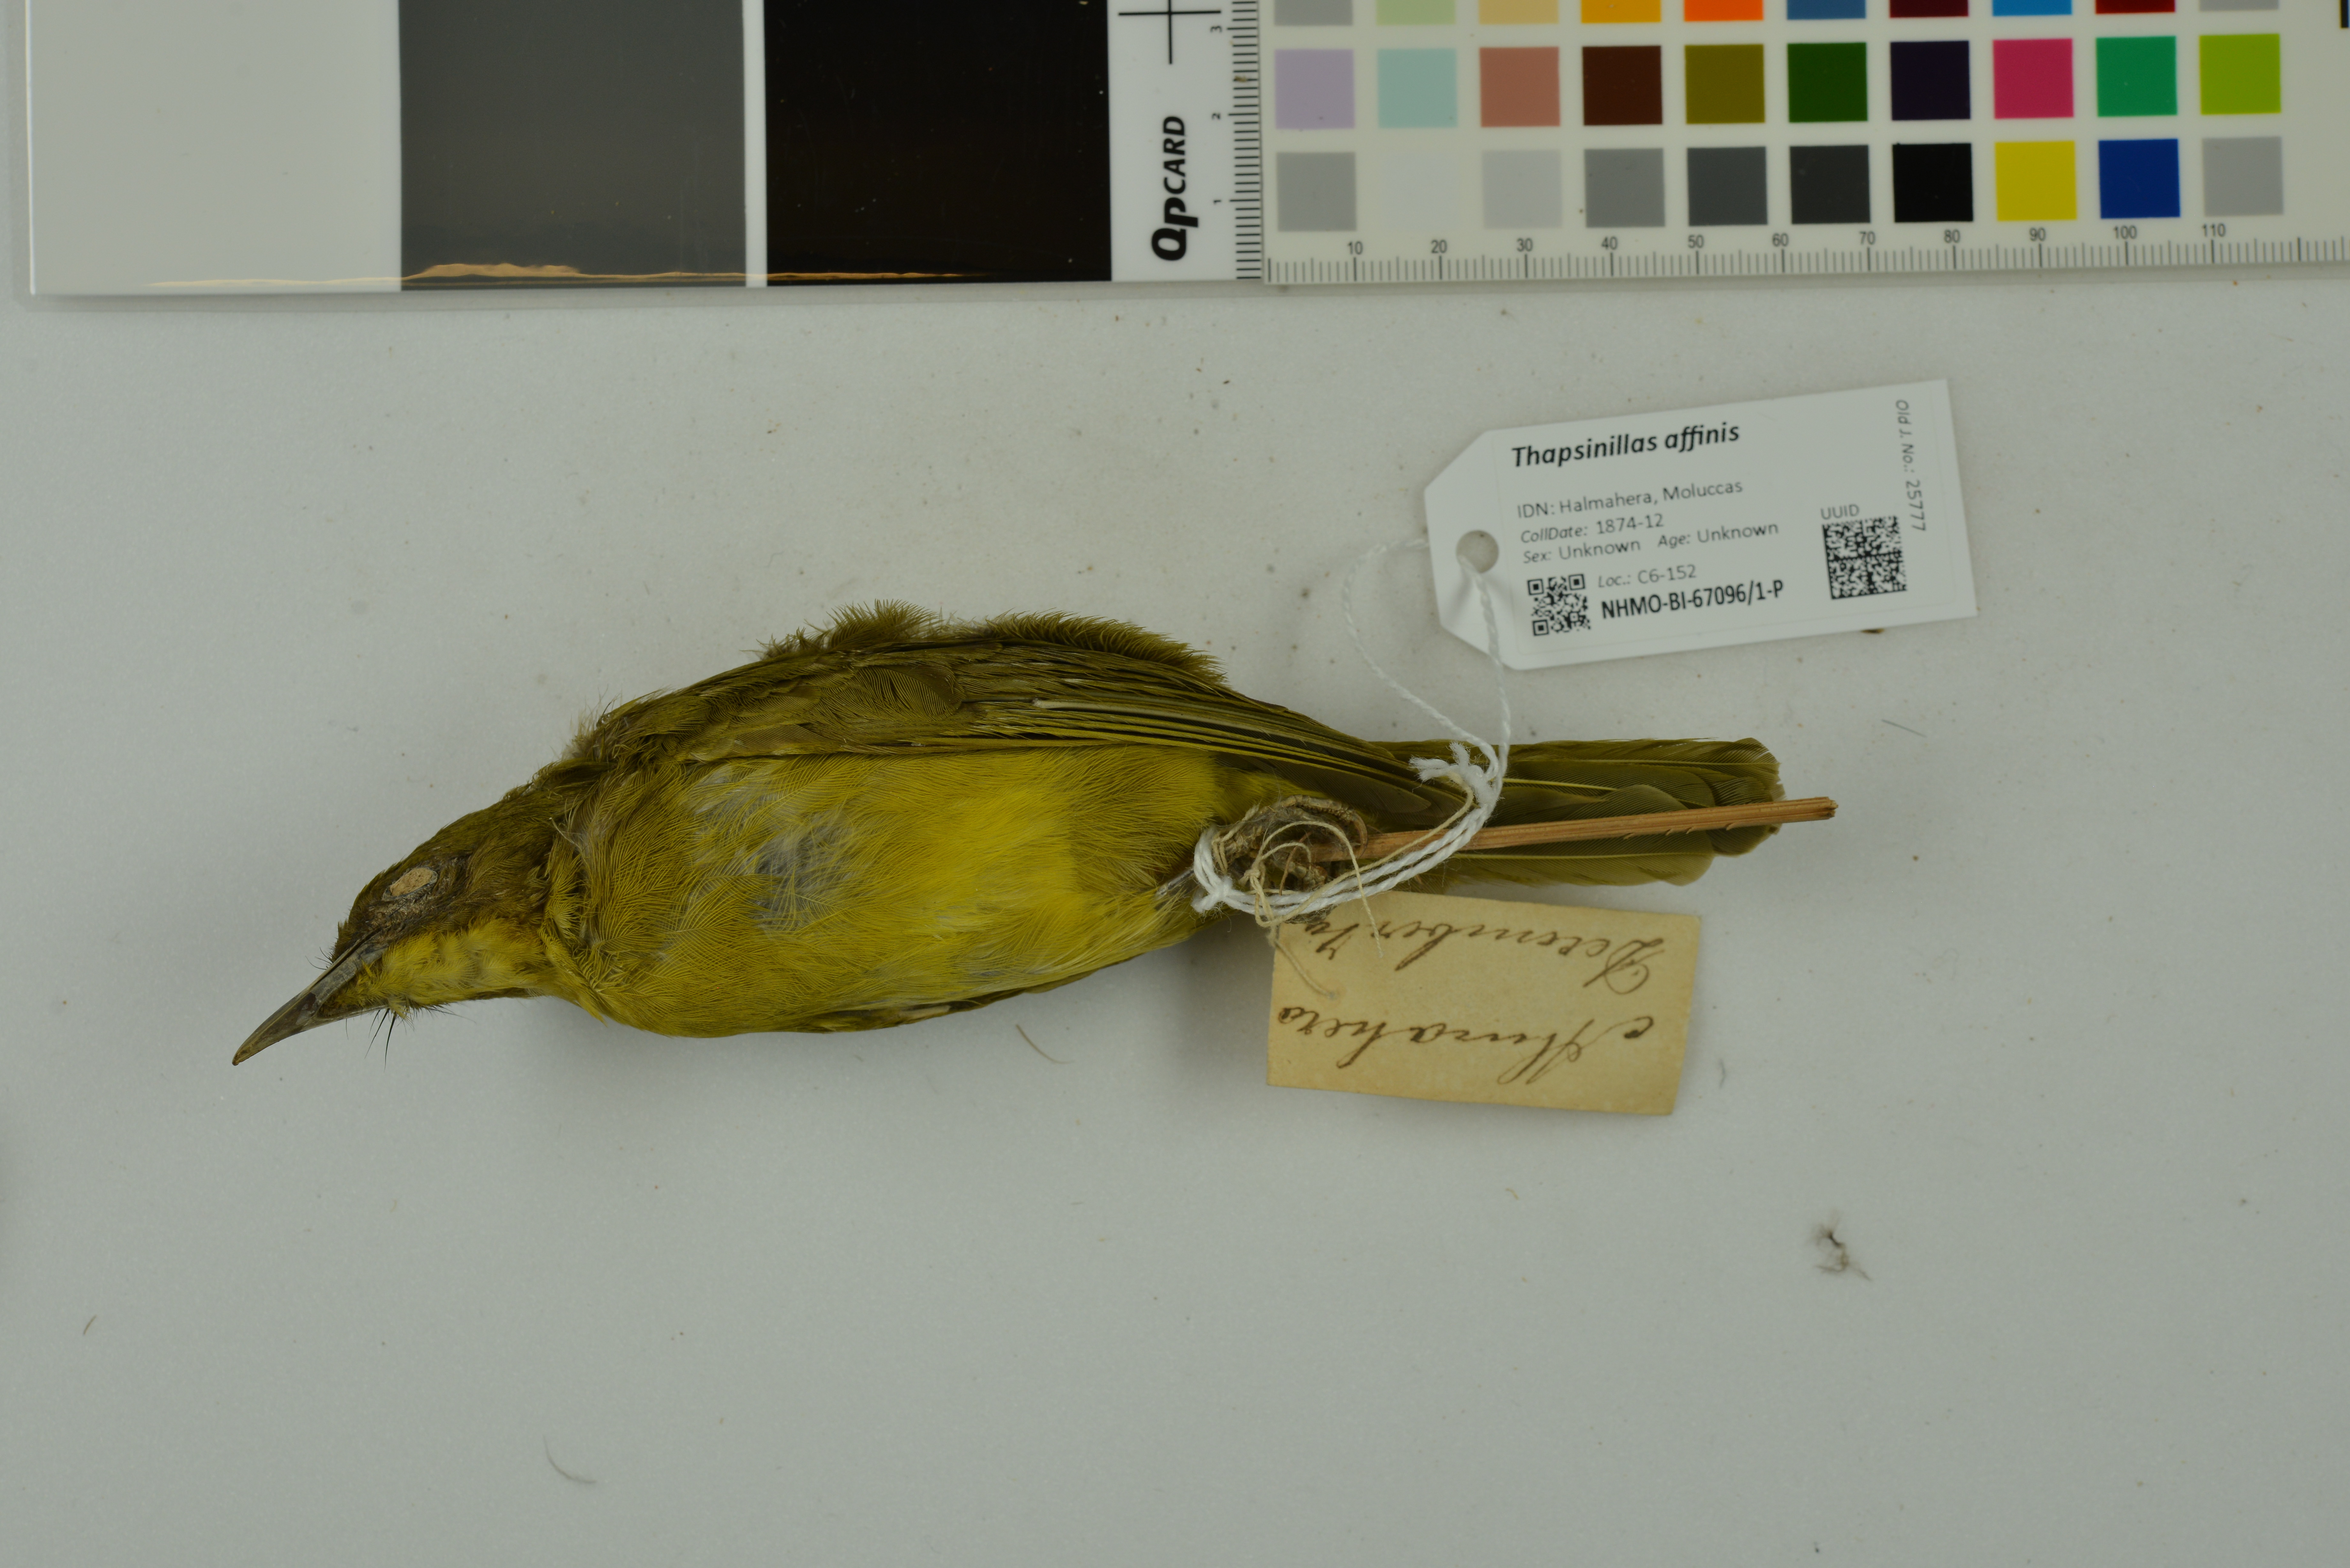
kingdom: Animalia
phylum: Chordata
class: Aves
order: Passeriformes
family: Pycnonotidae
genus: Thapsinillas
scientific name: Thapsinillas affinis
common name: Seram golden bulbul
